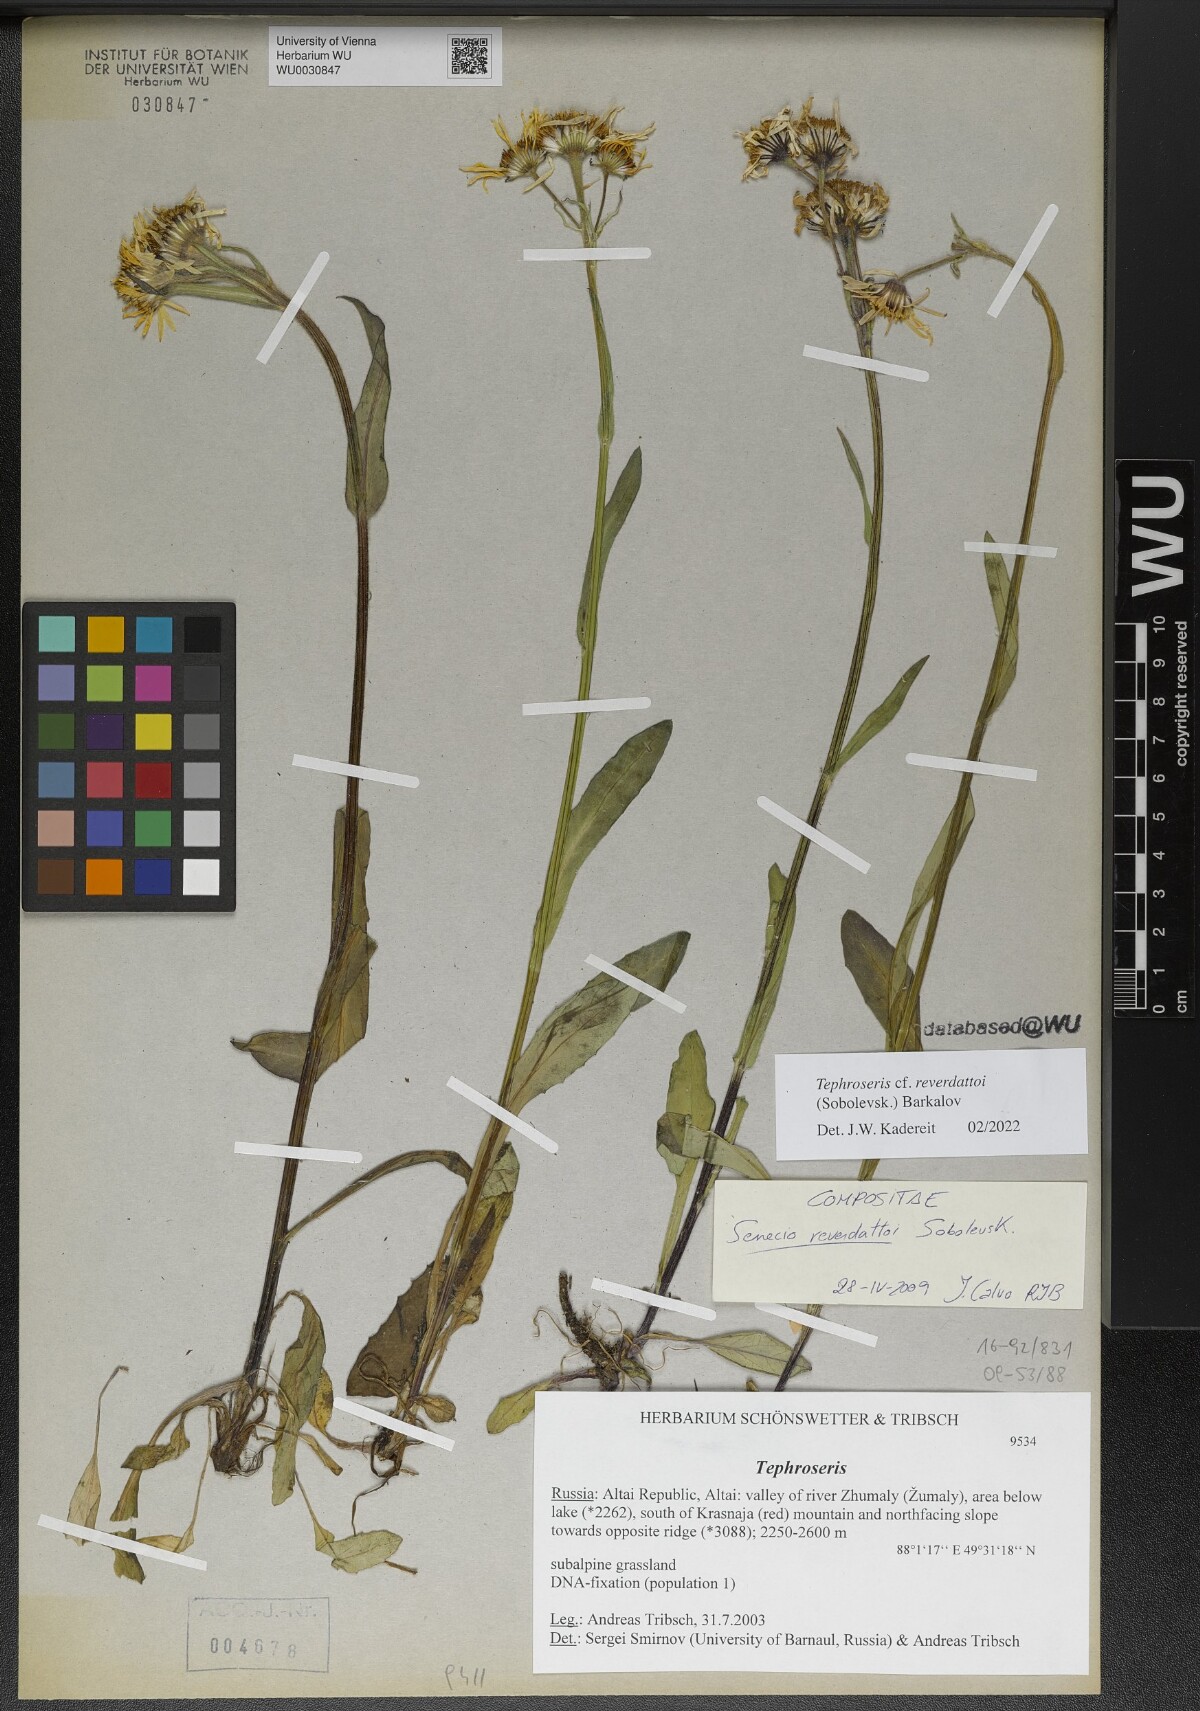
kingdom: Plantae
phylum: Tracheophyta
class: Magnoliopsida
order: Asterales
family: Asteraceae
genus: Tephroseris
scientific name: Tephroseris turczaninovii
